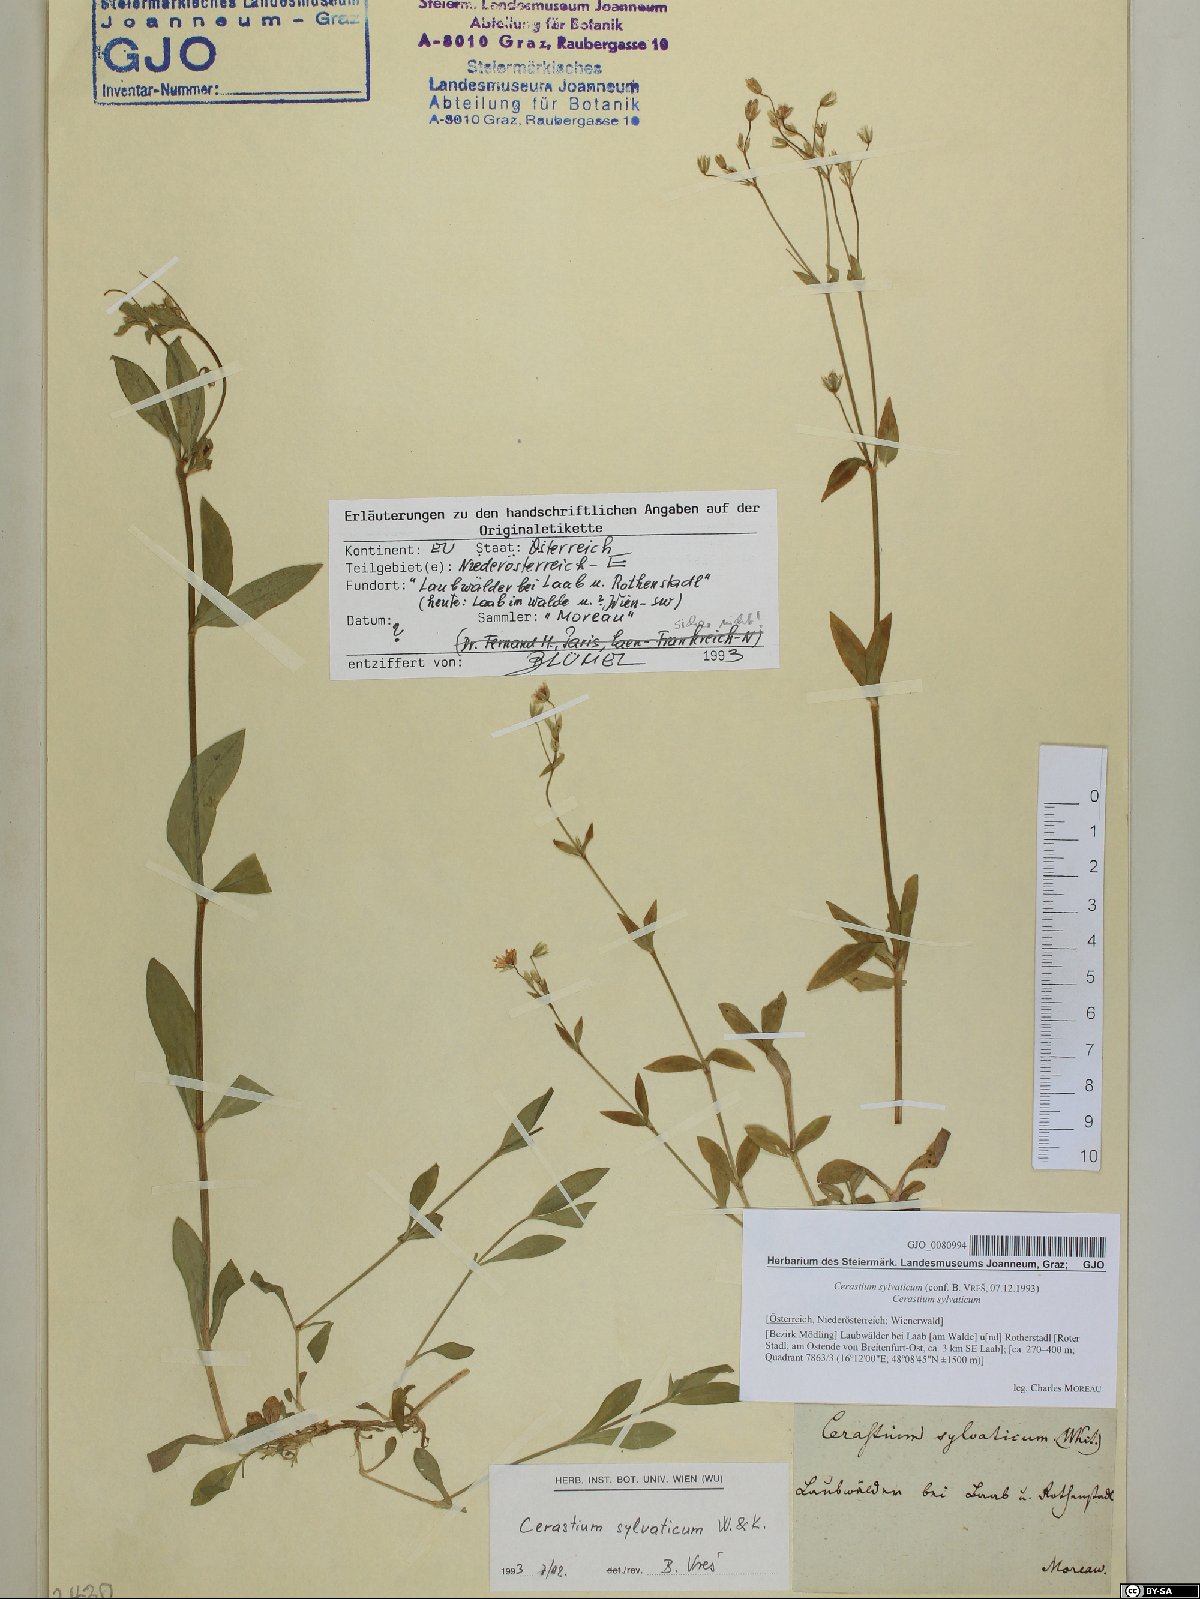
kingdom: Plantae
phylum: Tracheophyta
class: Magnoliopsida
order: Caryophyllales
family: Caryophyllaceae
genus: Cerastium
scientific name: Cerastium sylvaticum
